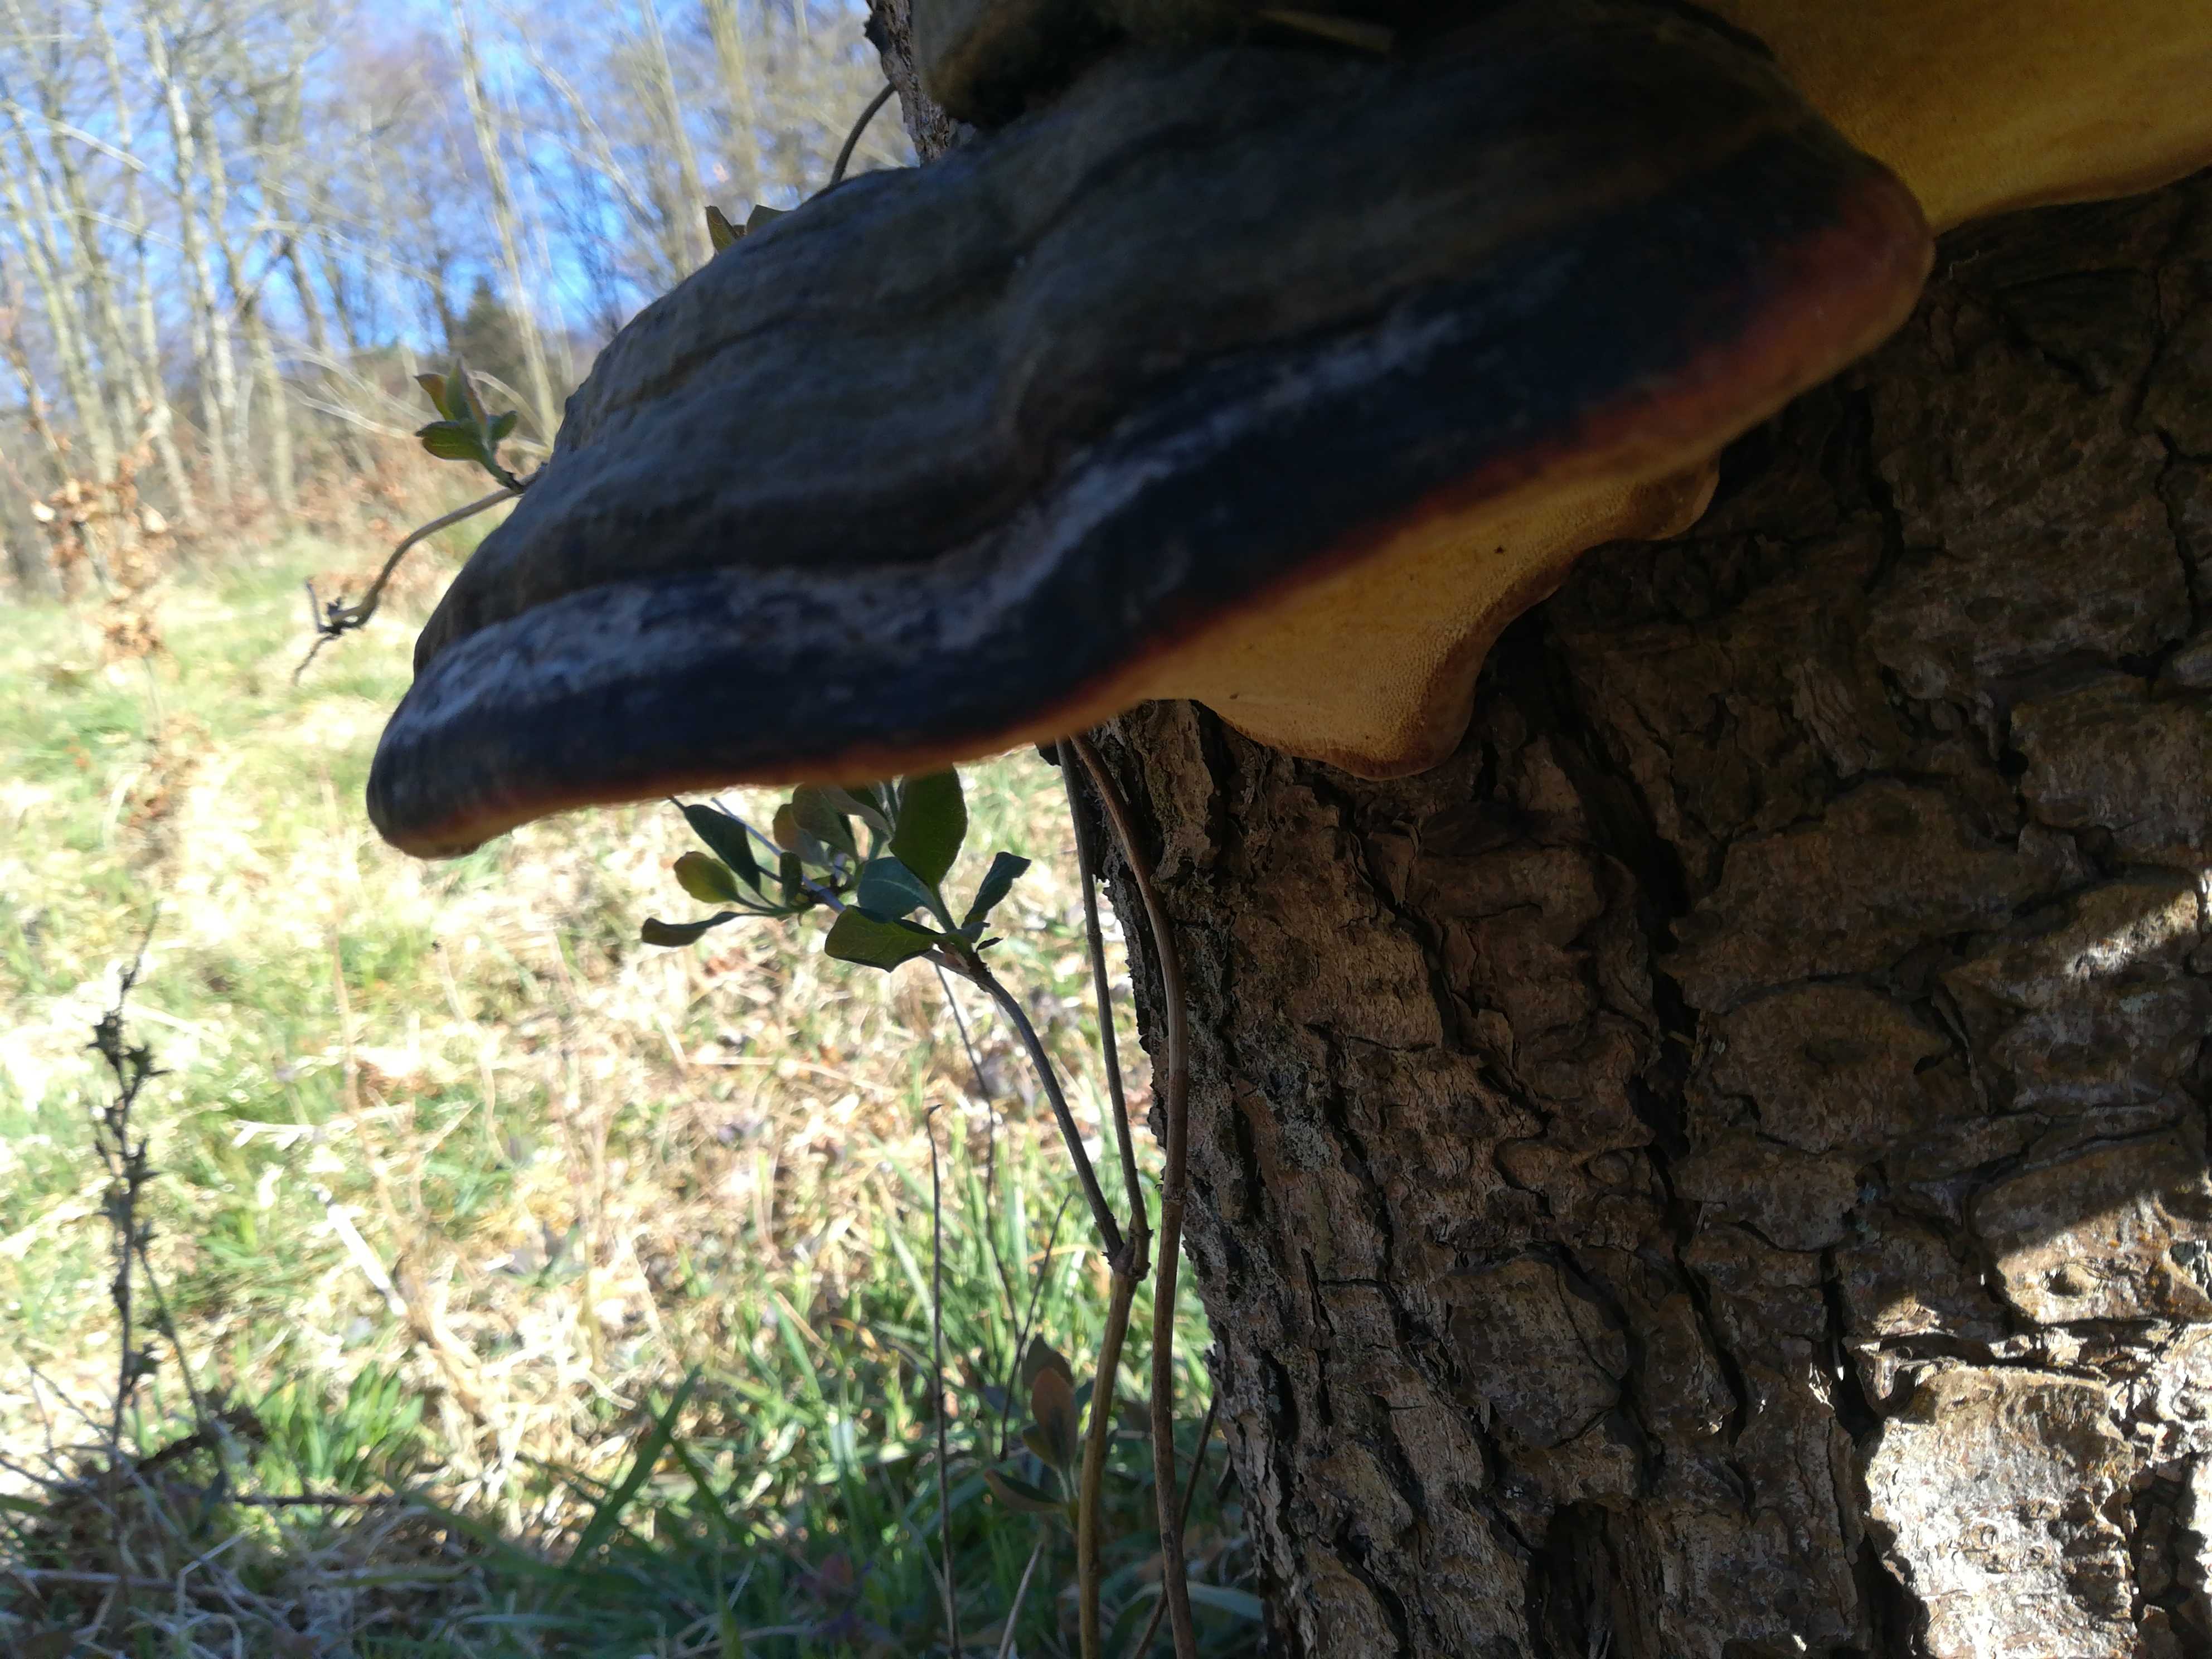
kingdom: Fungi
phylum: Basidiomycota
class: Agaricomycetes
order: Polyporales
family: Fomitopsidaceae
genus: Fomitopsis
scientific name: Fomitopsis pinicola
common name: randbæltet hovporesvamp
